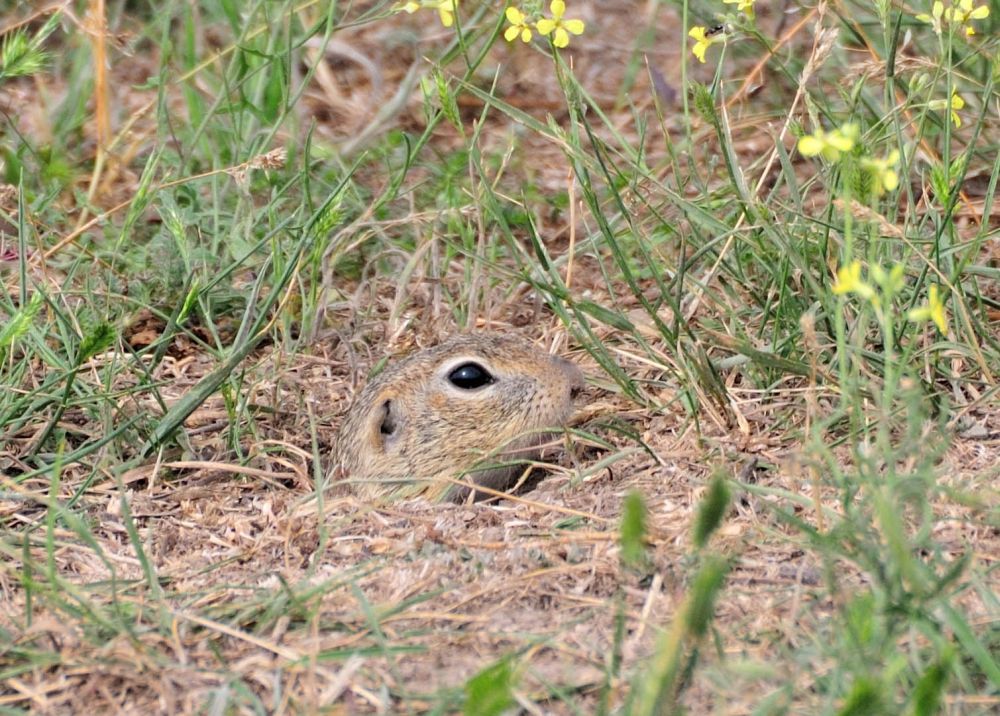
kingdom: Animalia
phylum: Chordata
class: Mammalia
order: Rodentia
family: Sciuridae
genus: Spermophilus
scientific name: Spermophilus
